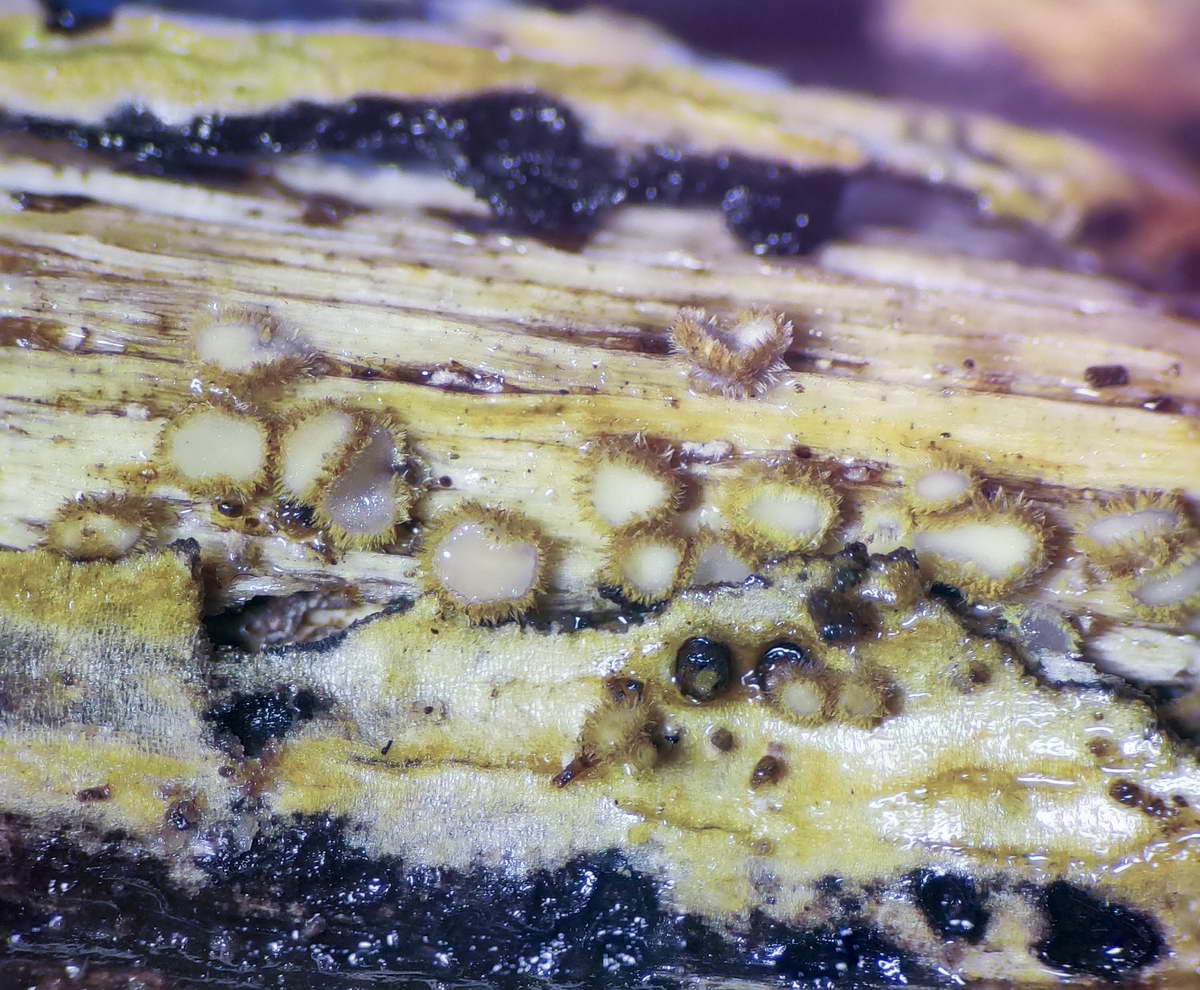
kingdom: Fungi
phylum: Ascomycota
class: Leotiomycetes
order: Helotiales
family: Lachnaceae
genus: Lachnum
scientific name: Lachnum sulphureum
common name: svovlhåret frynseskive
